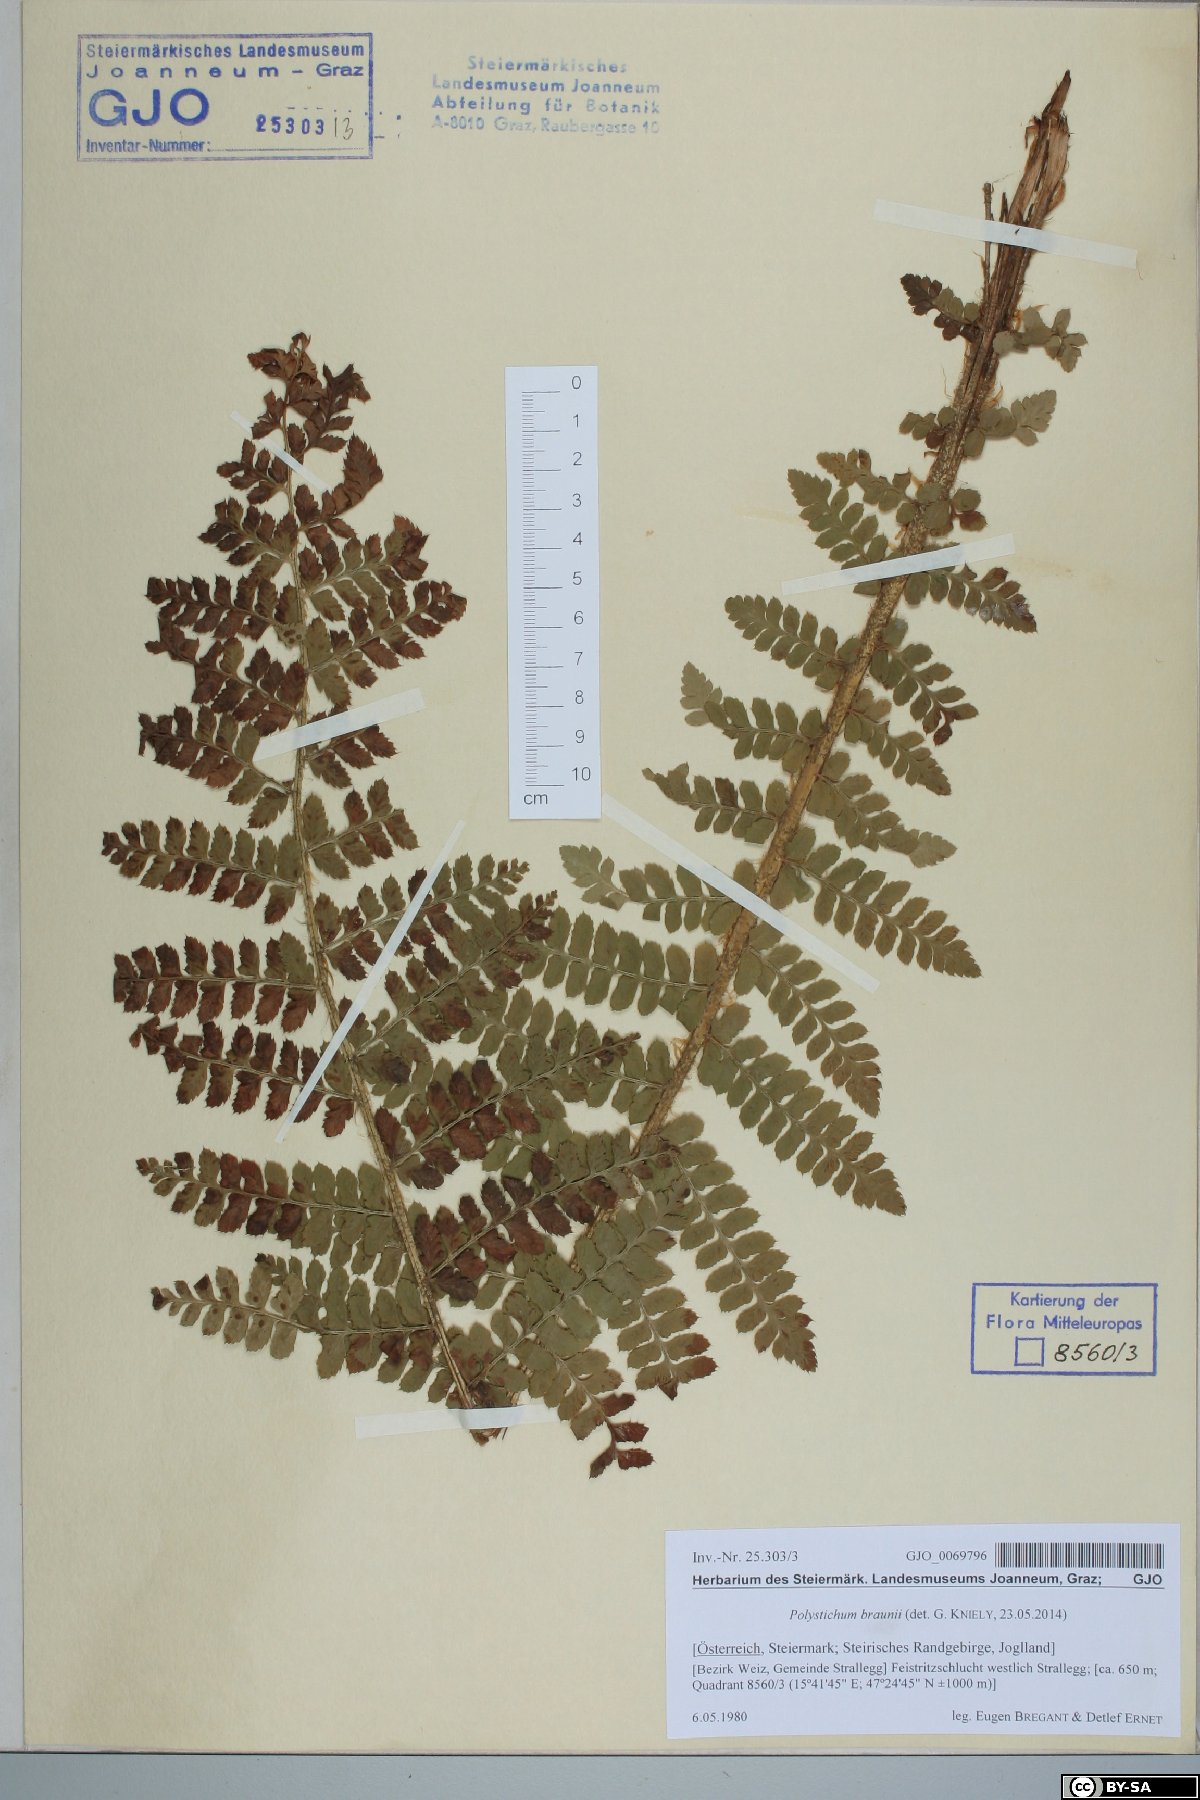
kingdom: Plantae
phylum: Tracheophyta
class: Polypodiopsida
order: Polypodiales
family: Dryopteridaceae
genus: Polystichum
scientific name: Polystichum braunii
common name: Braun's holly fern
